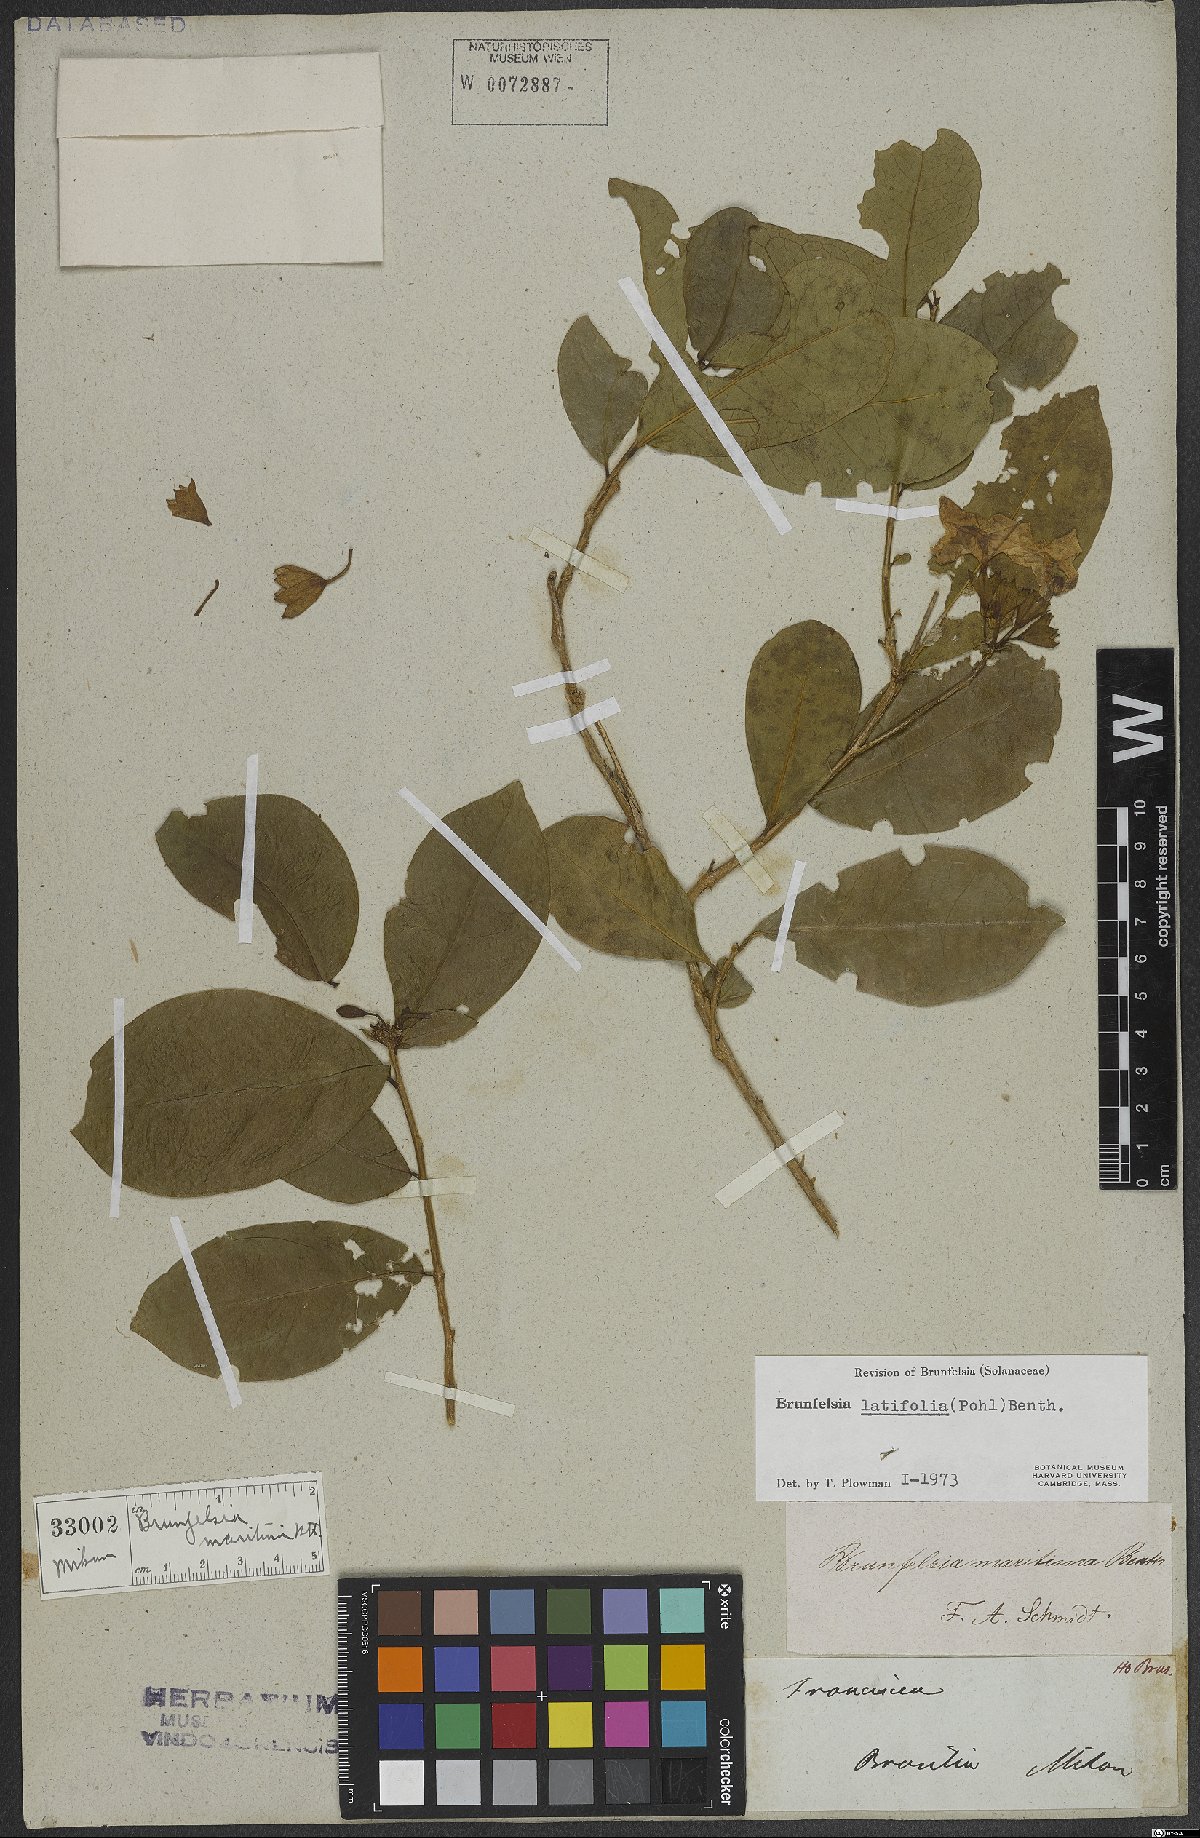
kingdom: Plantae
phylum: Tracheophyta
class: Magnoliopsida
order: Solanales
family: Solanaceae
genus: Brunfelsia
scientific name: Brunfelsia latifolia
